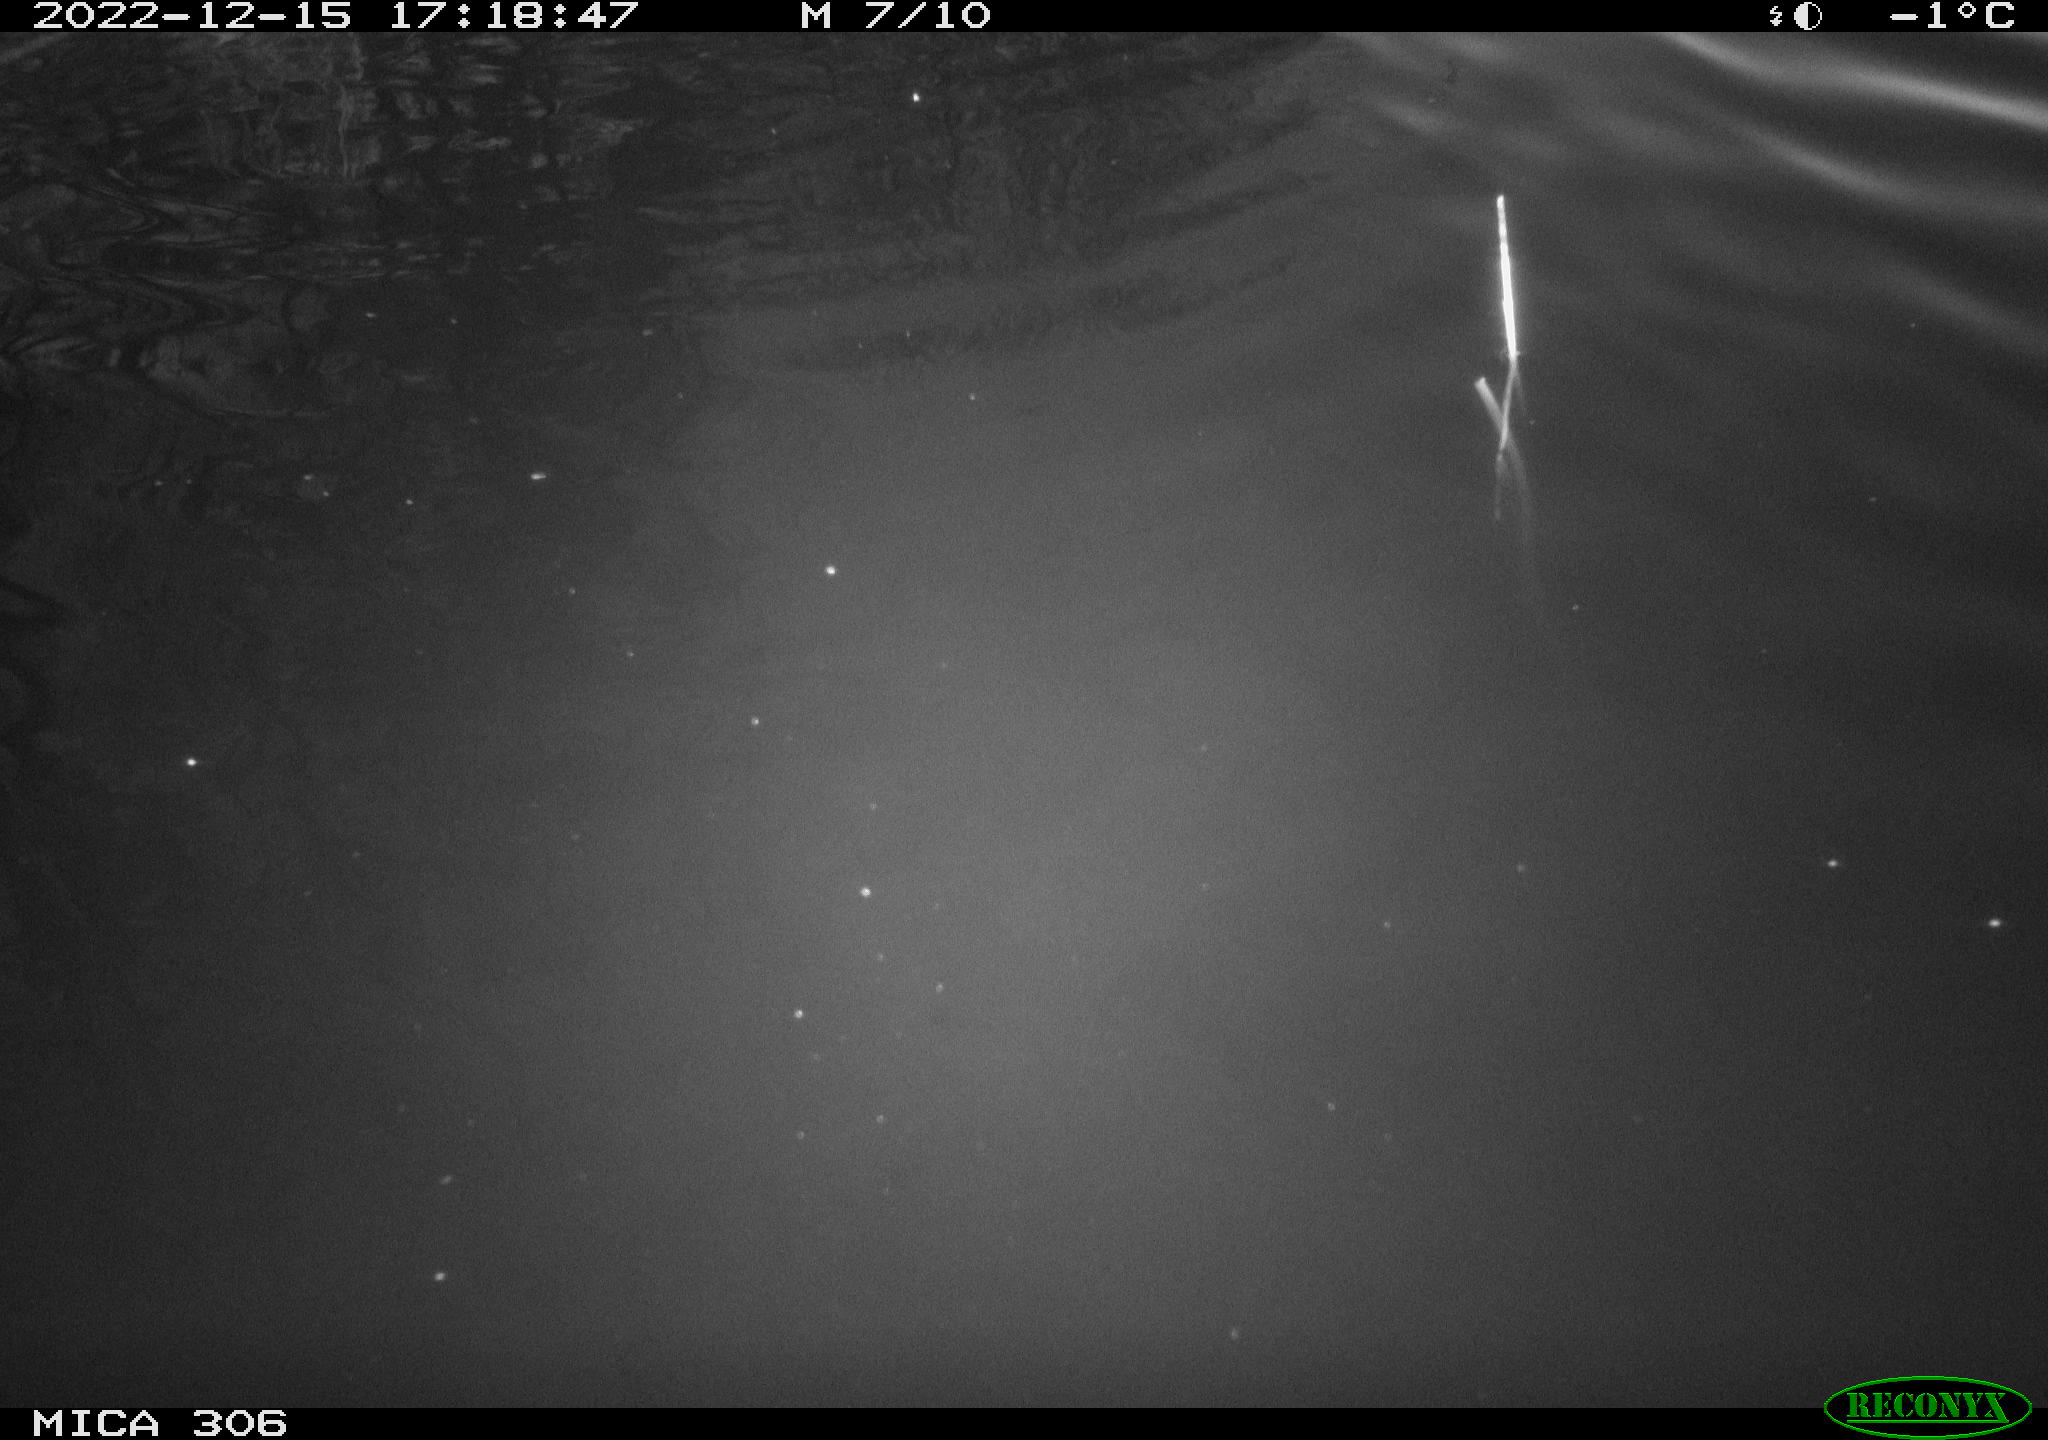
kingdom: Animalia
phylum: Chordata
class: Mammalia
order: Rodentia
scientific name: Rodentia
